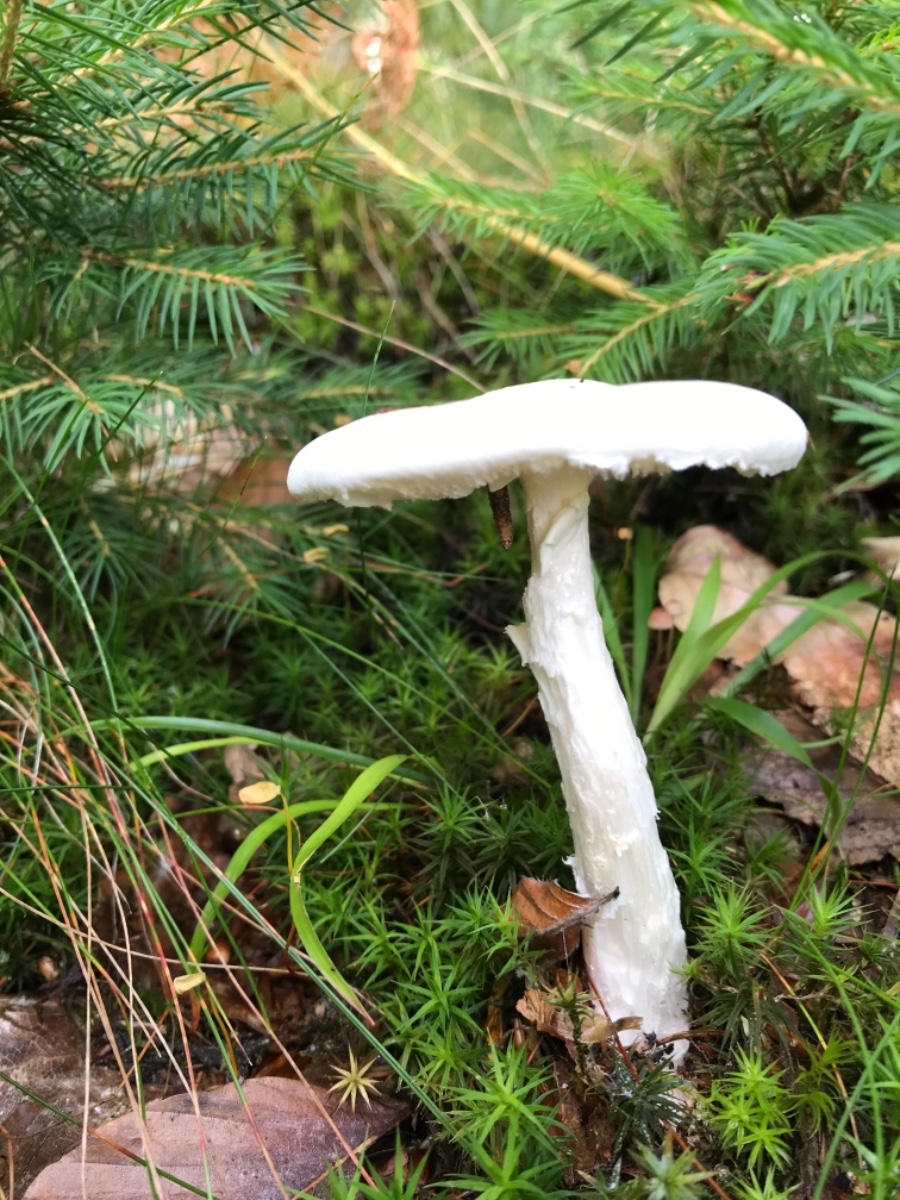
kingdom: Fungi
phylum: Basidiomycota
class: Agaricomycetes
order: Agaricales
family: Amanitaceae
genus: Amanita
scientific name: Amanita virosa
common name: snehvid fluesvamp
